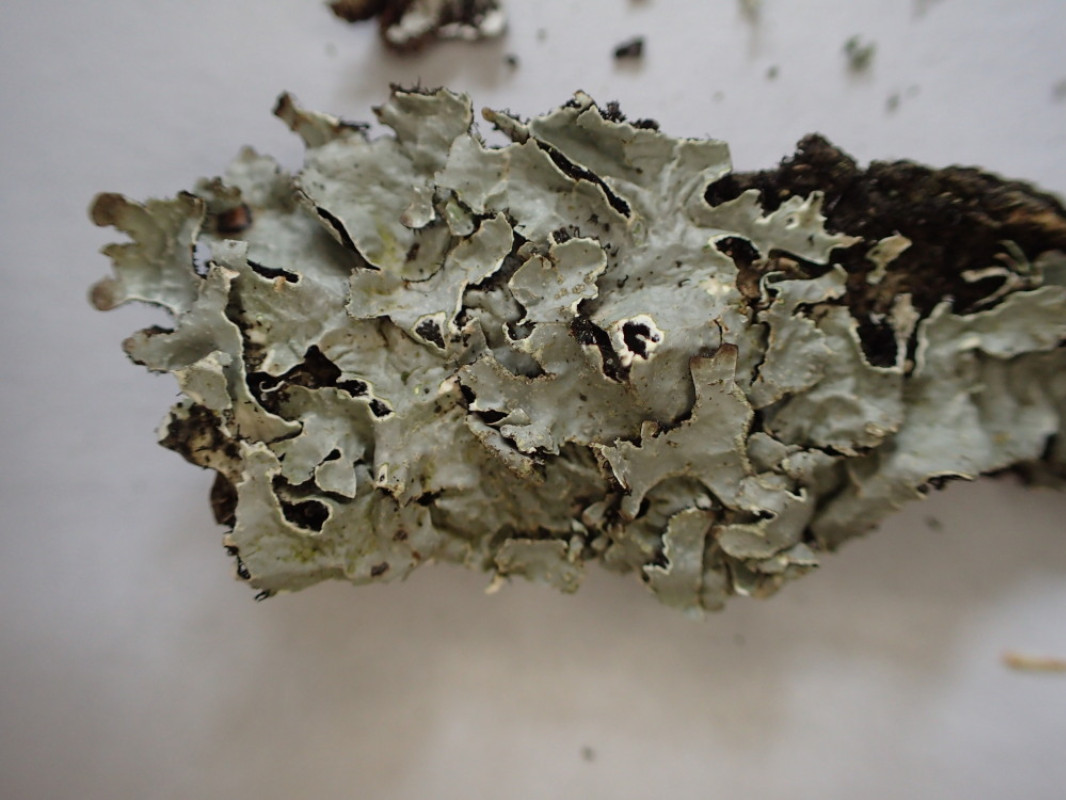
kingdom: Fungi
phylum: Ascomycota
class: Lecanoromycetes
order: Lecanorales
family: Parmeliaceae
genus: Parmelia
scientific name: Parmelia sulcata
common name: rynket skållav
